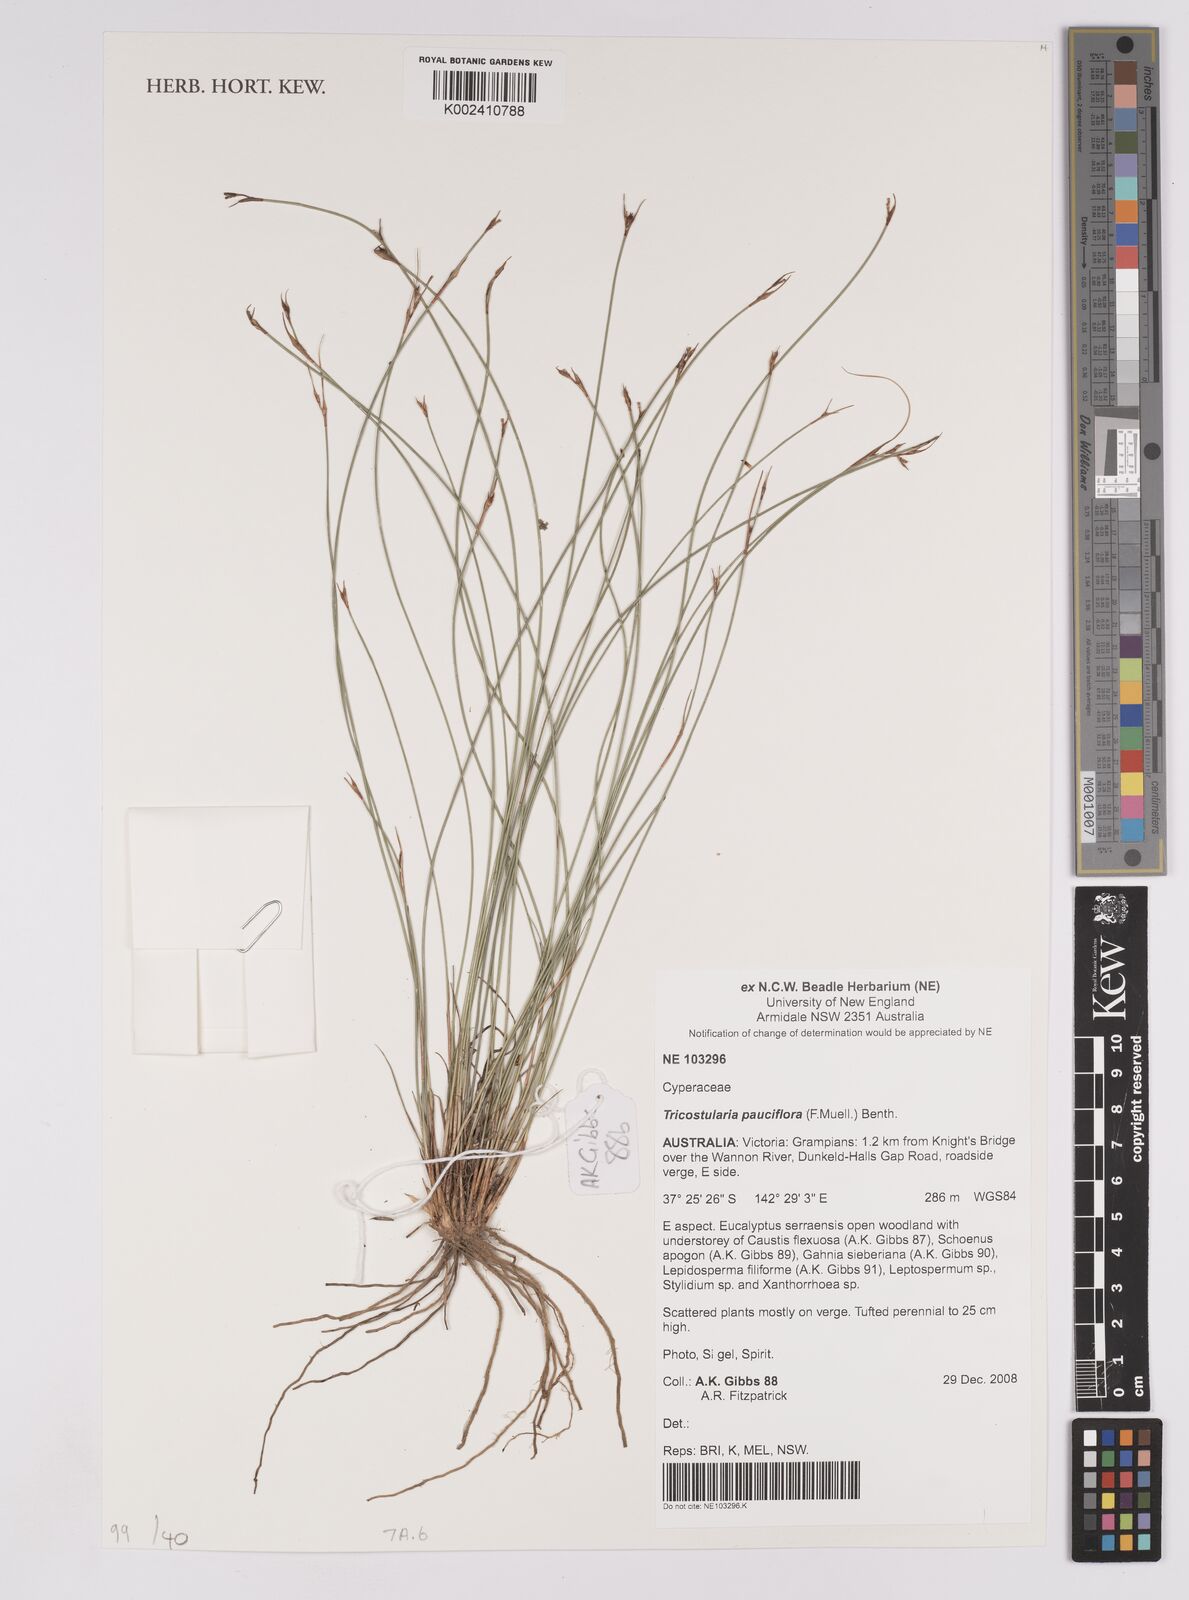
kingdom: Plantae
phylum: Tracheophyta
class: Liliopsida
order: Poales
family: Cyperaceae
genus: Tricostularia
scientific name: Tricostularia pauciflora
